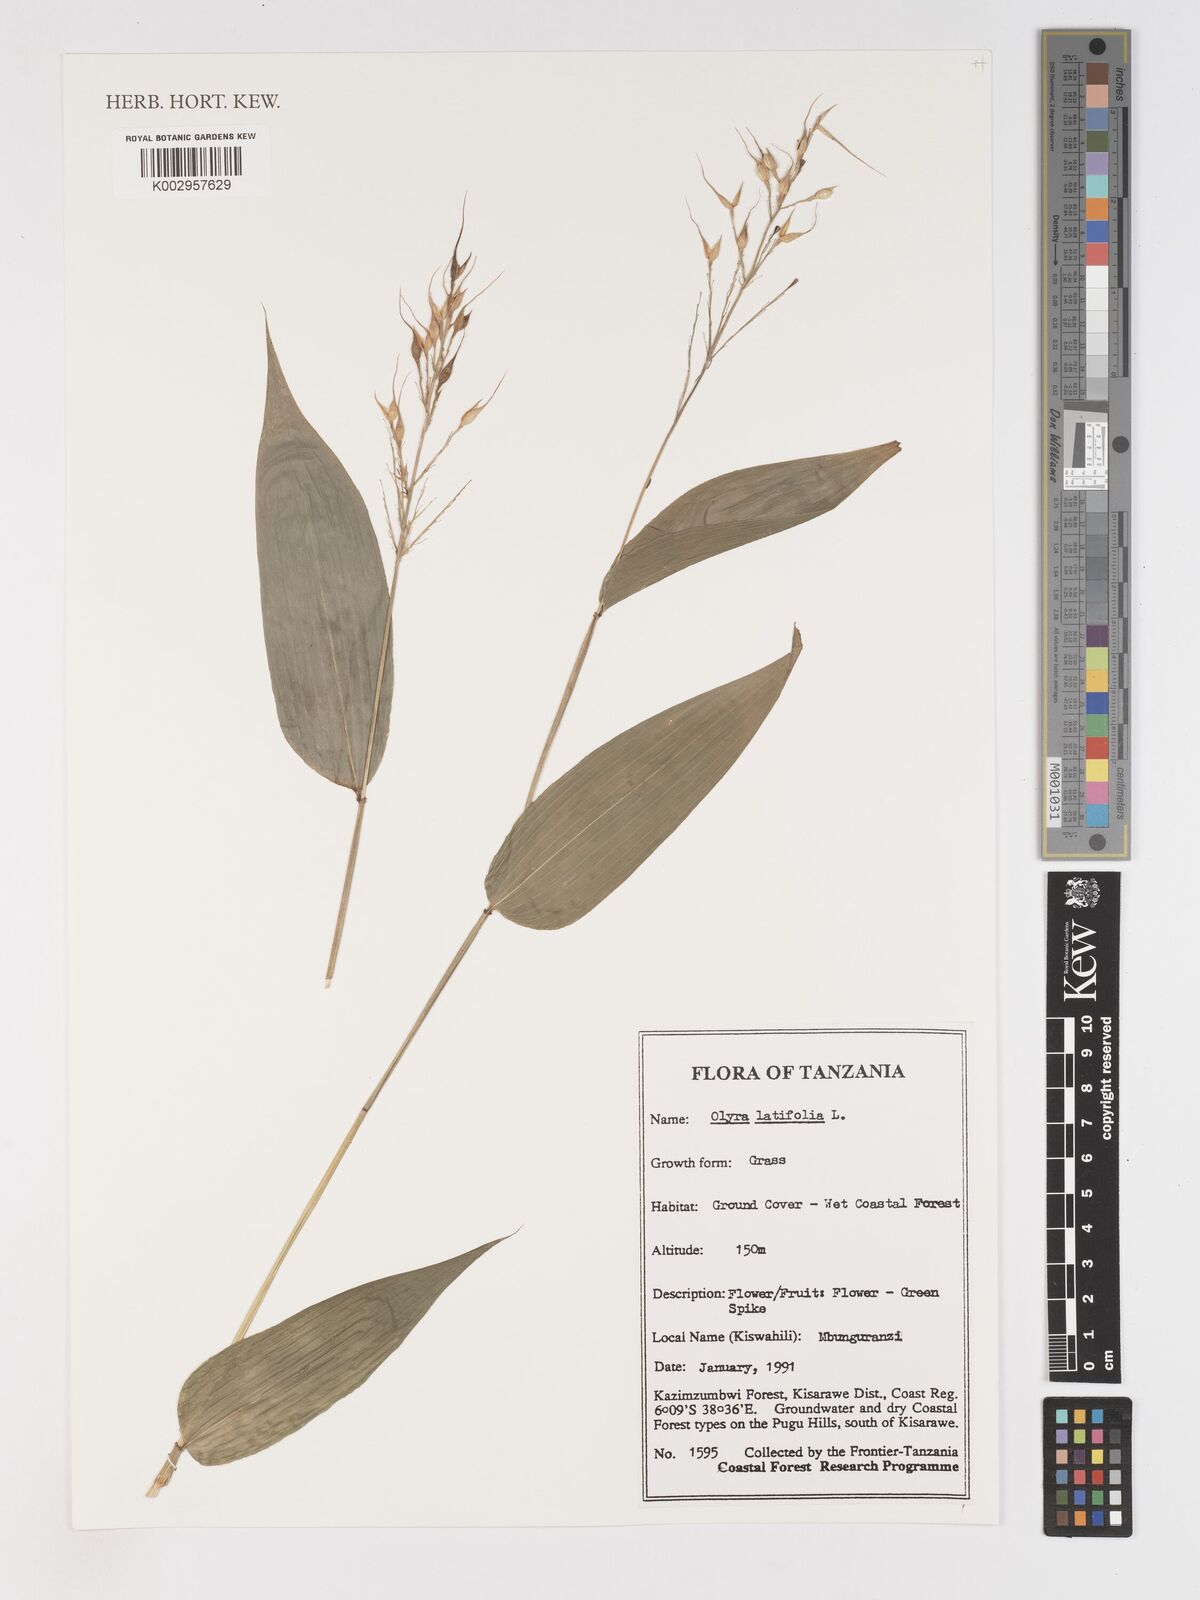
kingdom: Plantae
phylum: Tracheophyta
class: Liliopsida
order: Poales
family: Poaceae
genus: Olyra
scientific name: Olyra latifolia
